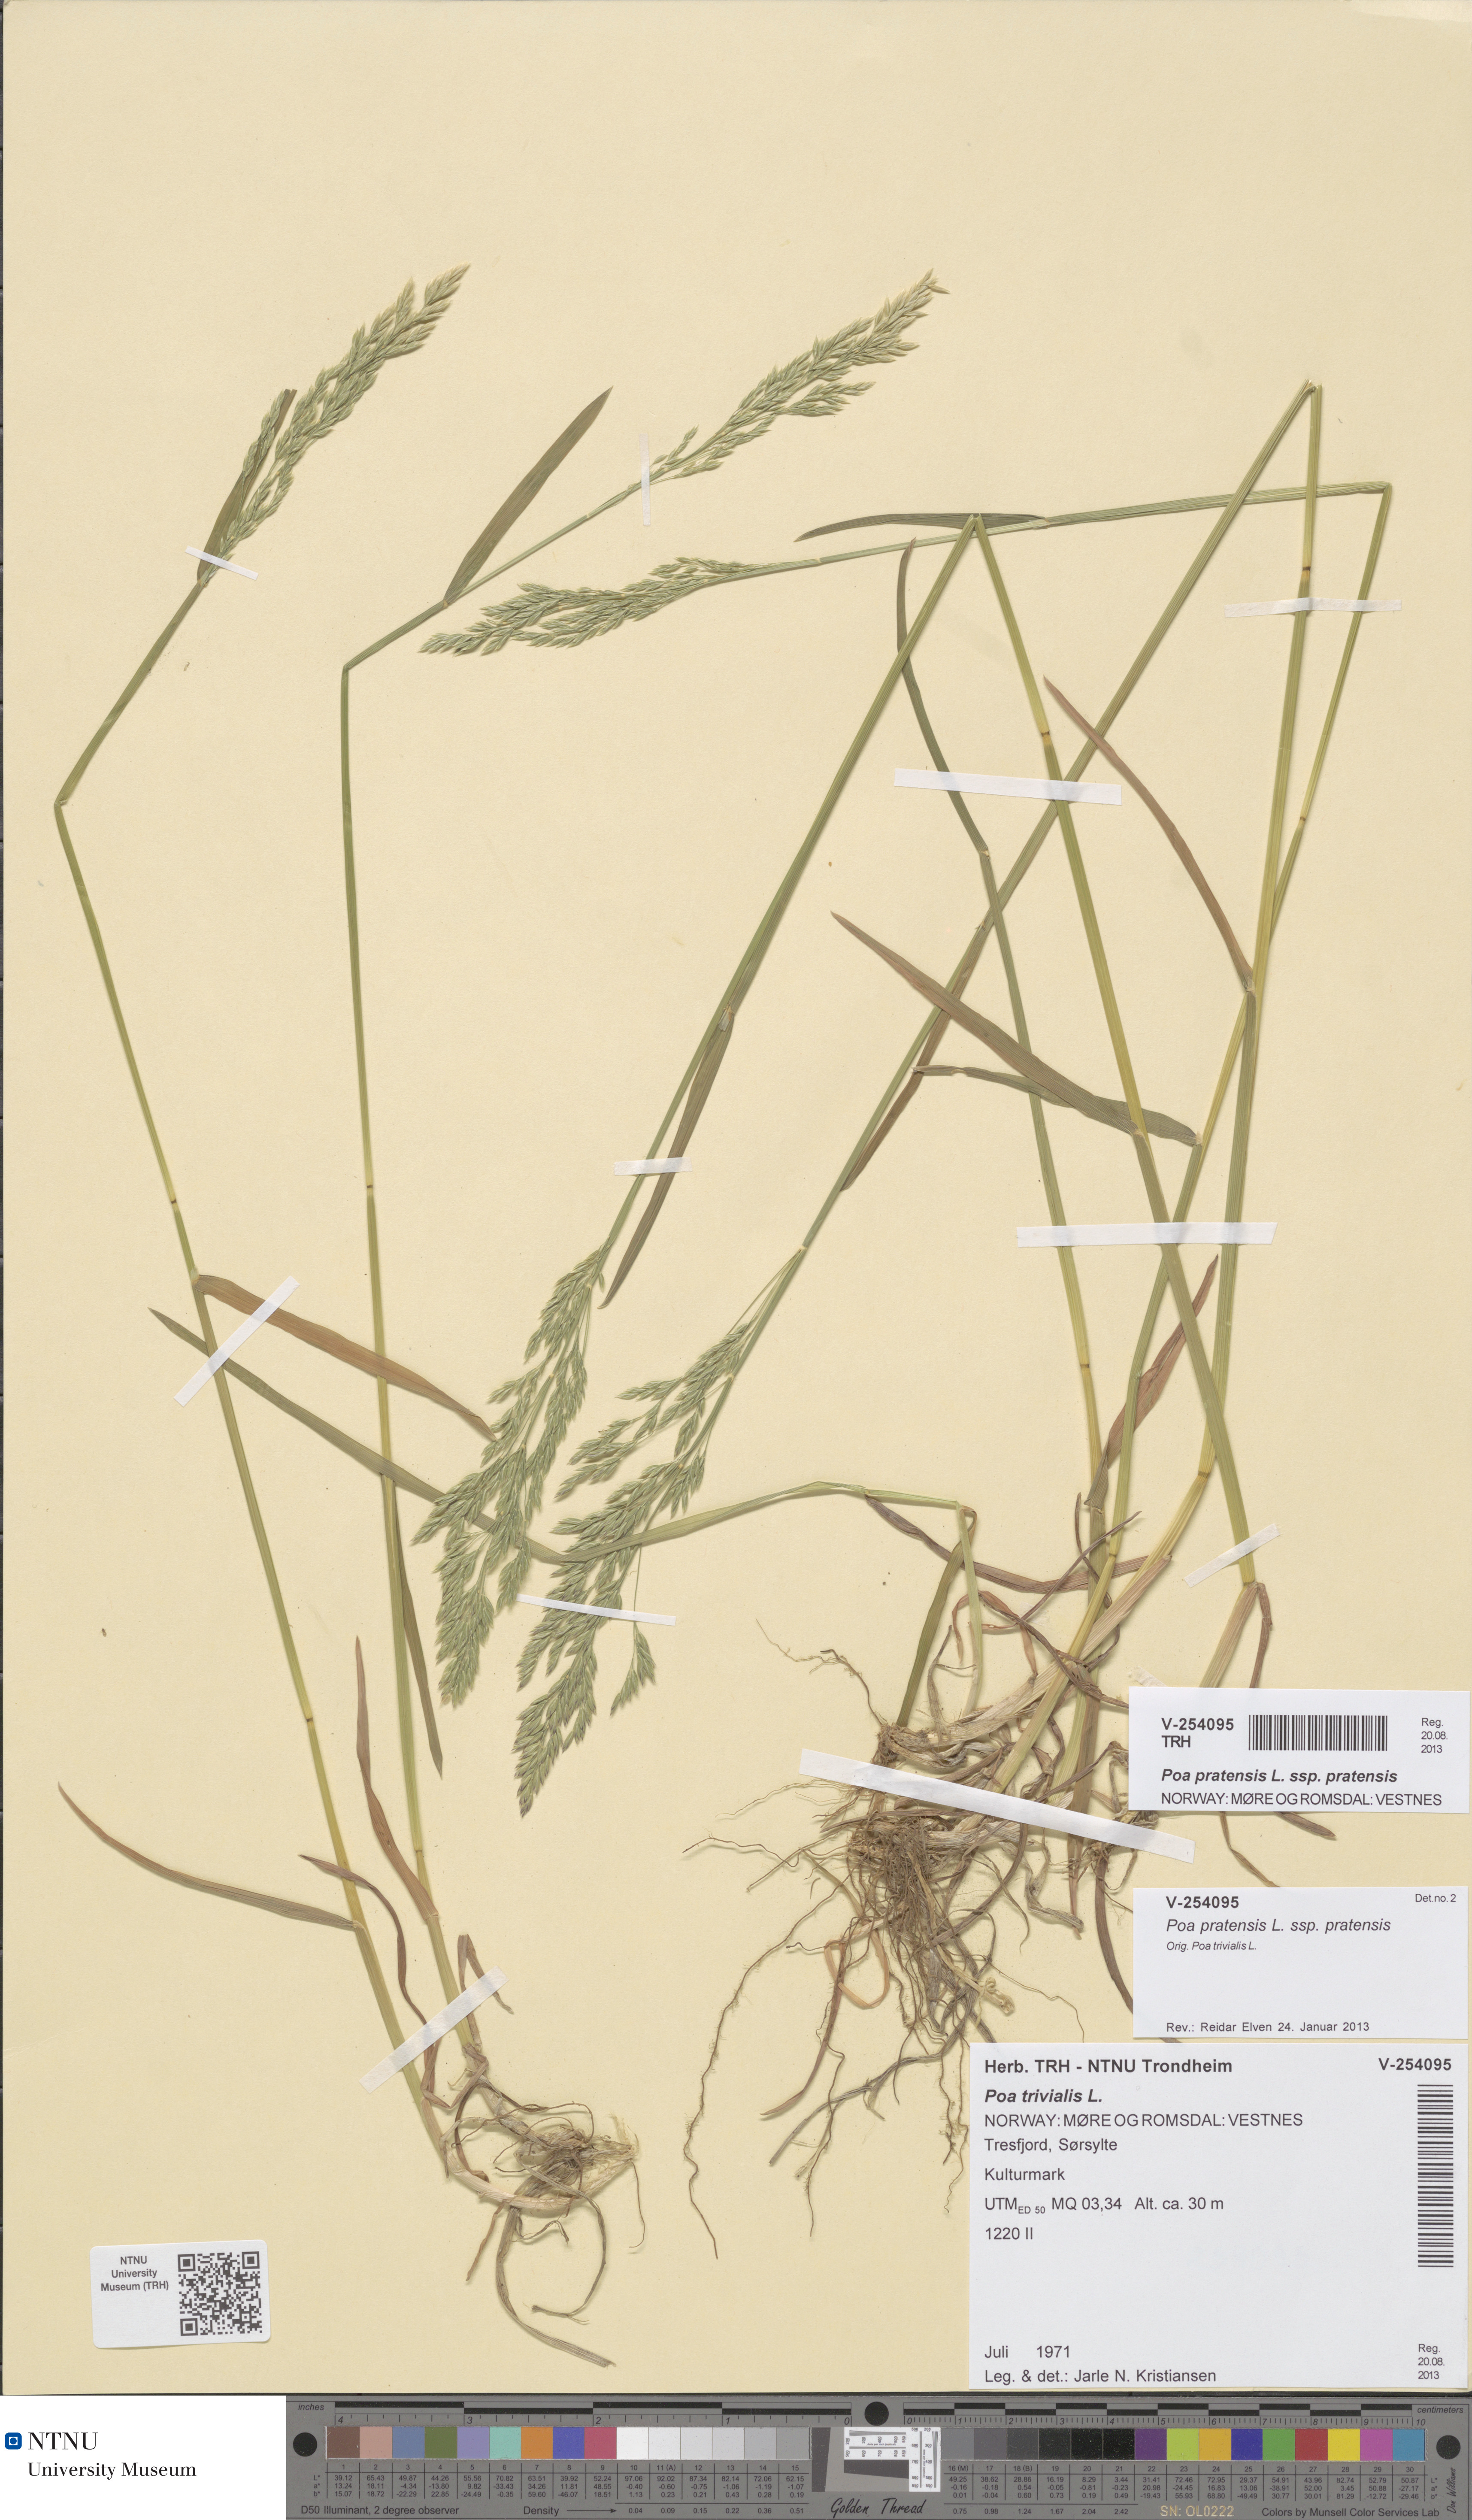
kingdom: Plantae
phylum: Tracheophyta
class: Liliopsida
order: Poales
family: Poaceae
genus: Poa
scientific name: Poa pratensis
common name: Kentucky bluegrass
